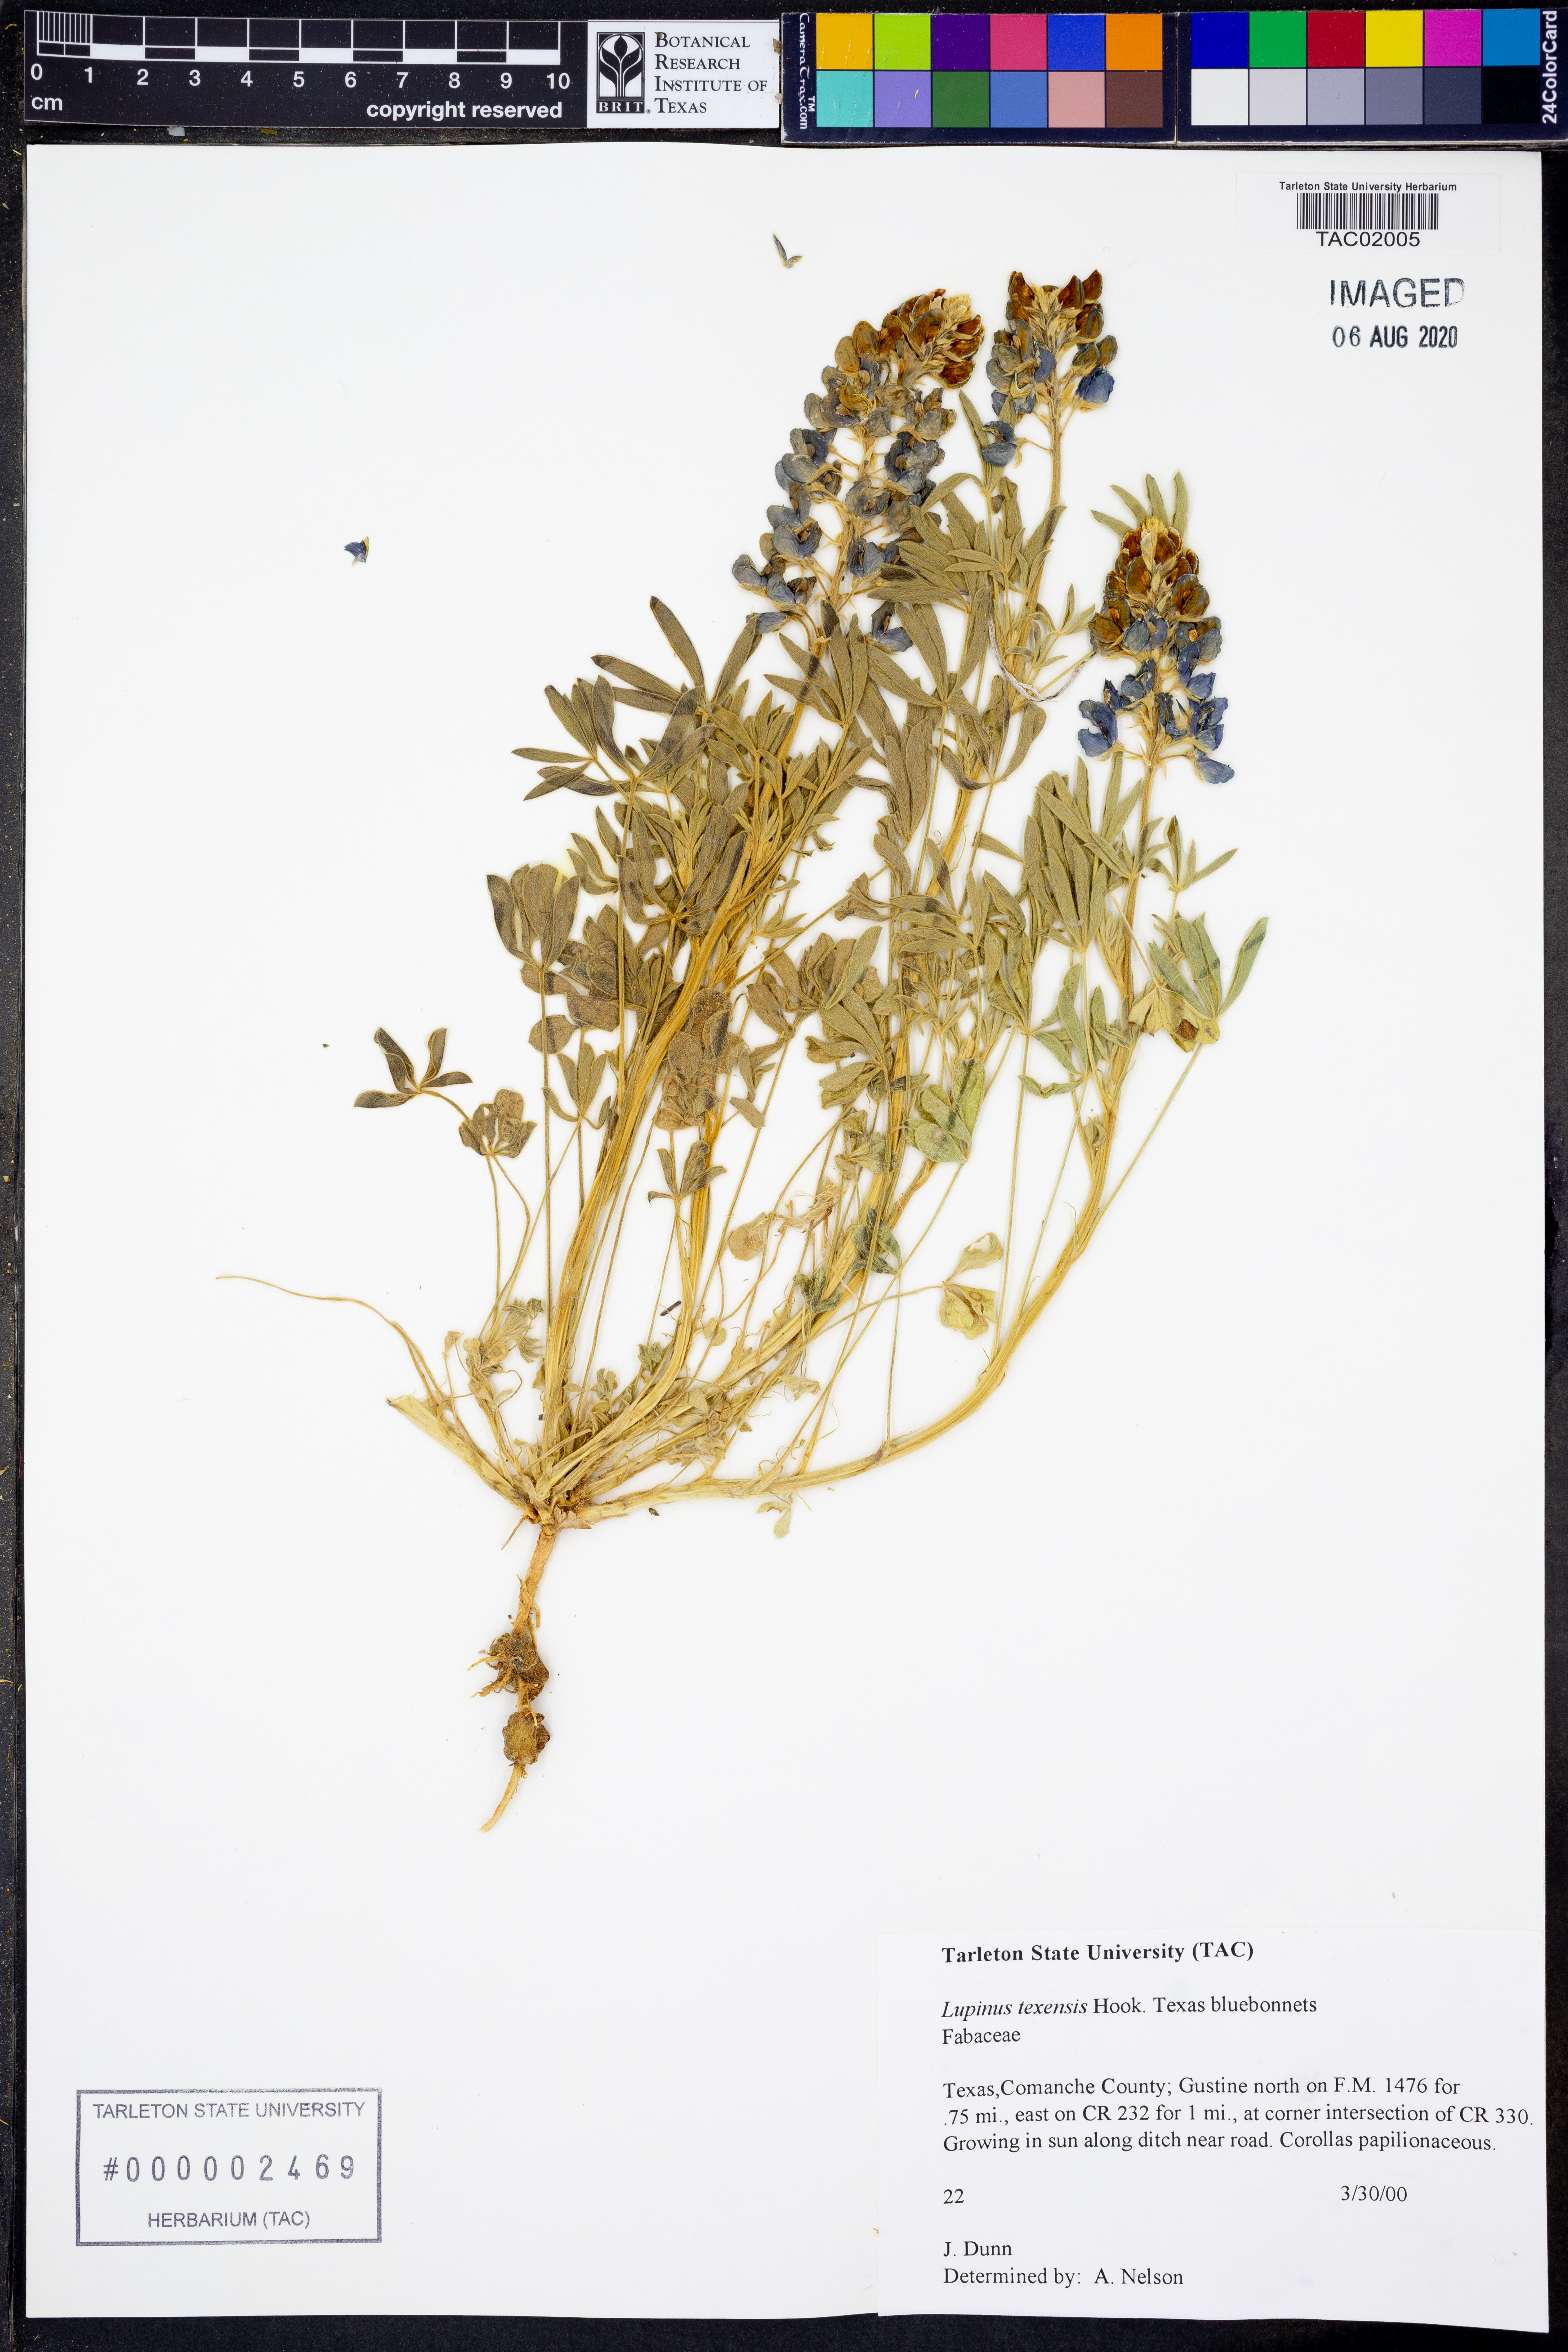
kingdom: Plantae
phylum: Tracheophyta
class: Magnoliopsida
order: Fabales
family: Fabaceae
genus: Lupinus
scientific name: Lupinus texensis
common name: Texas bluebonnet
